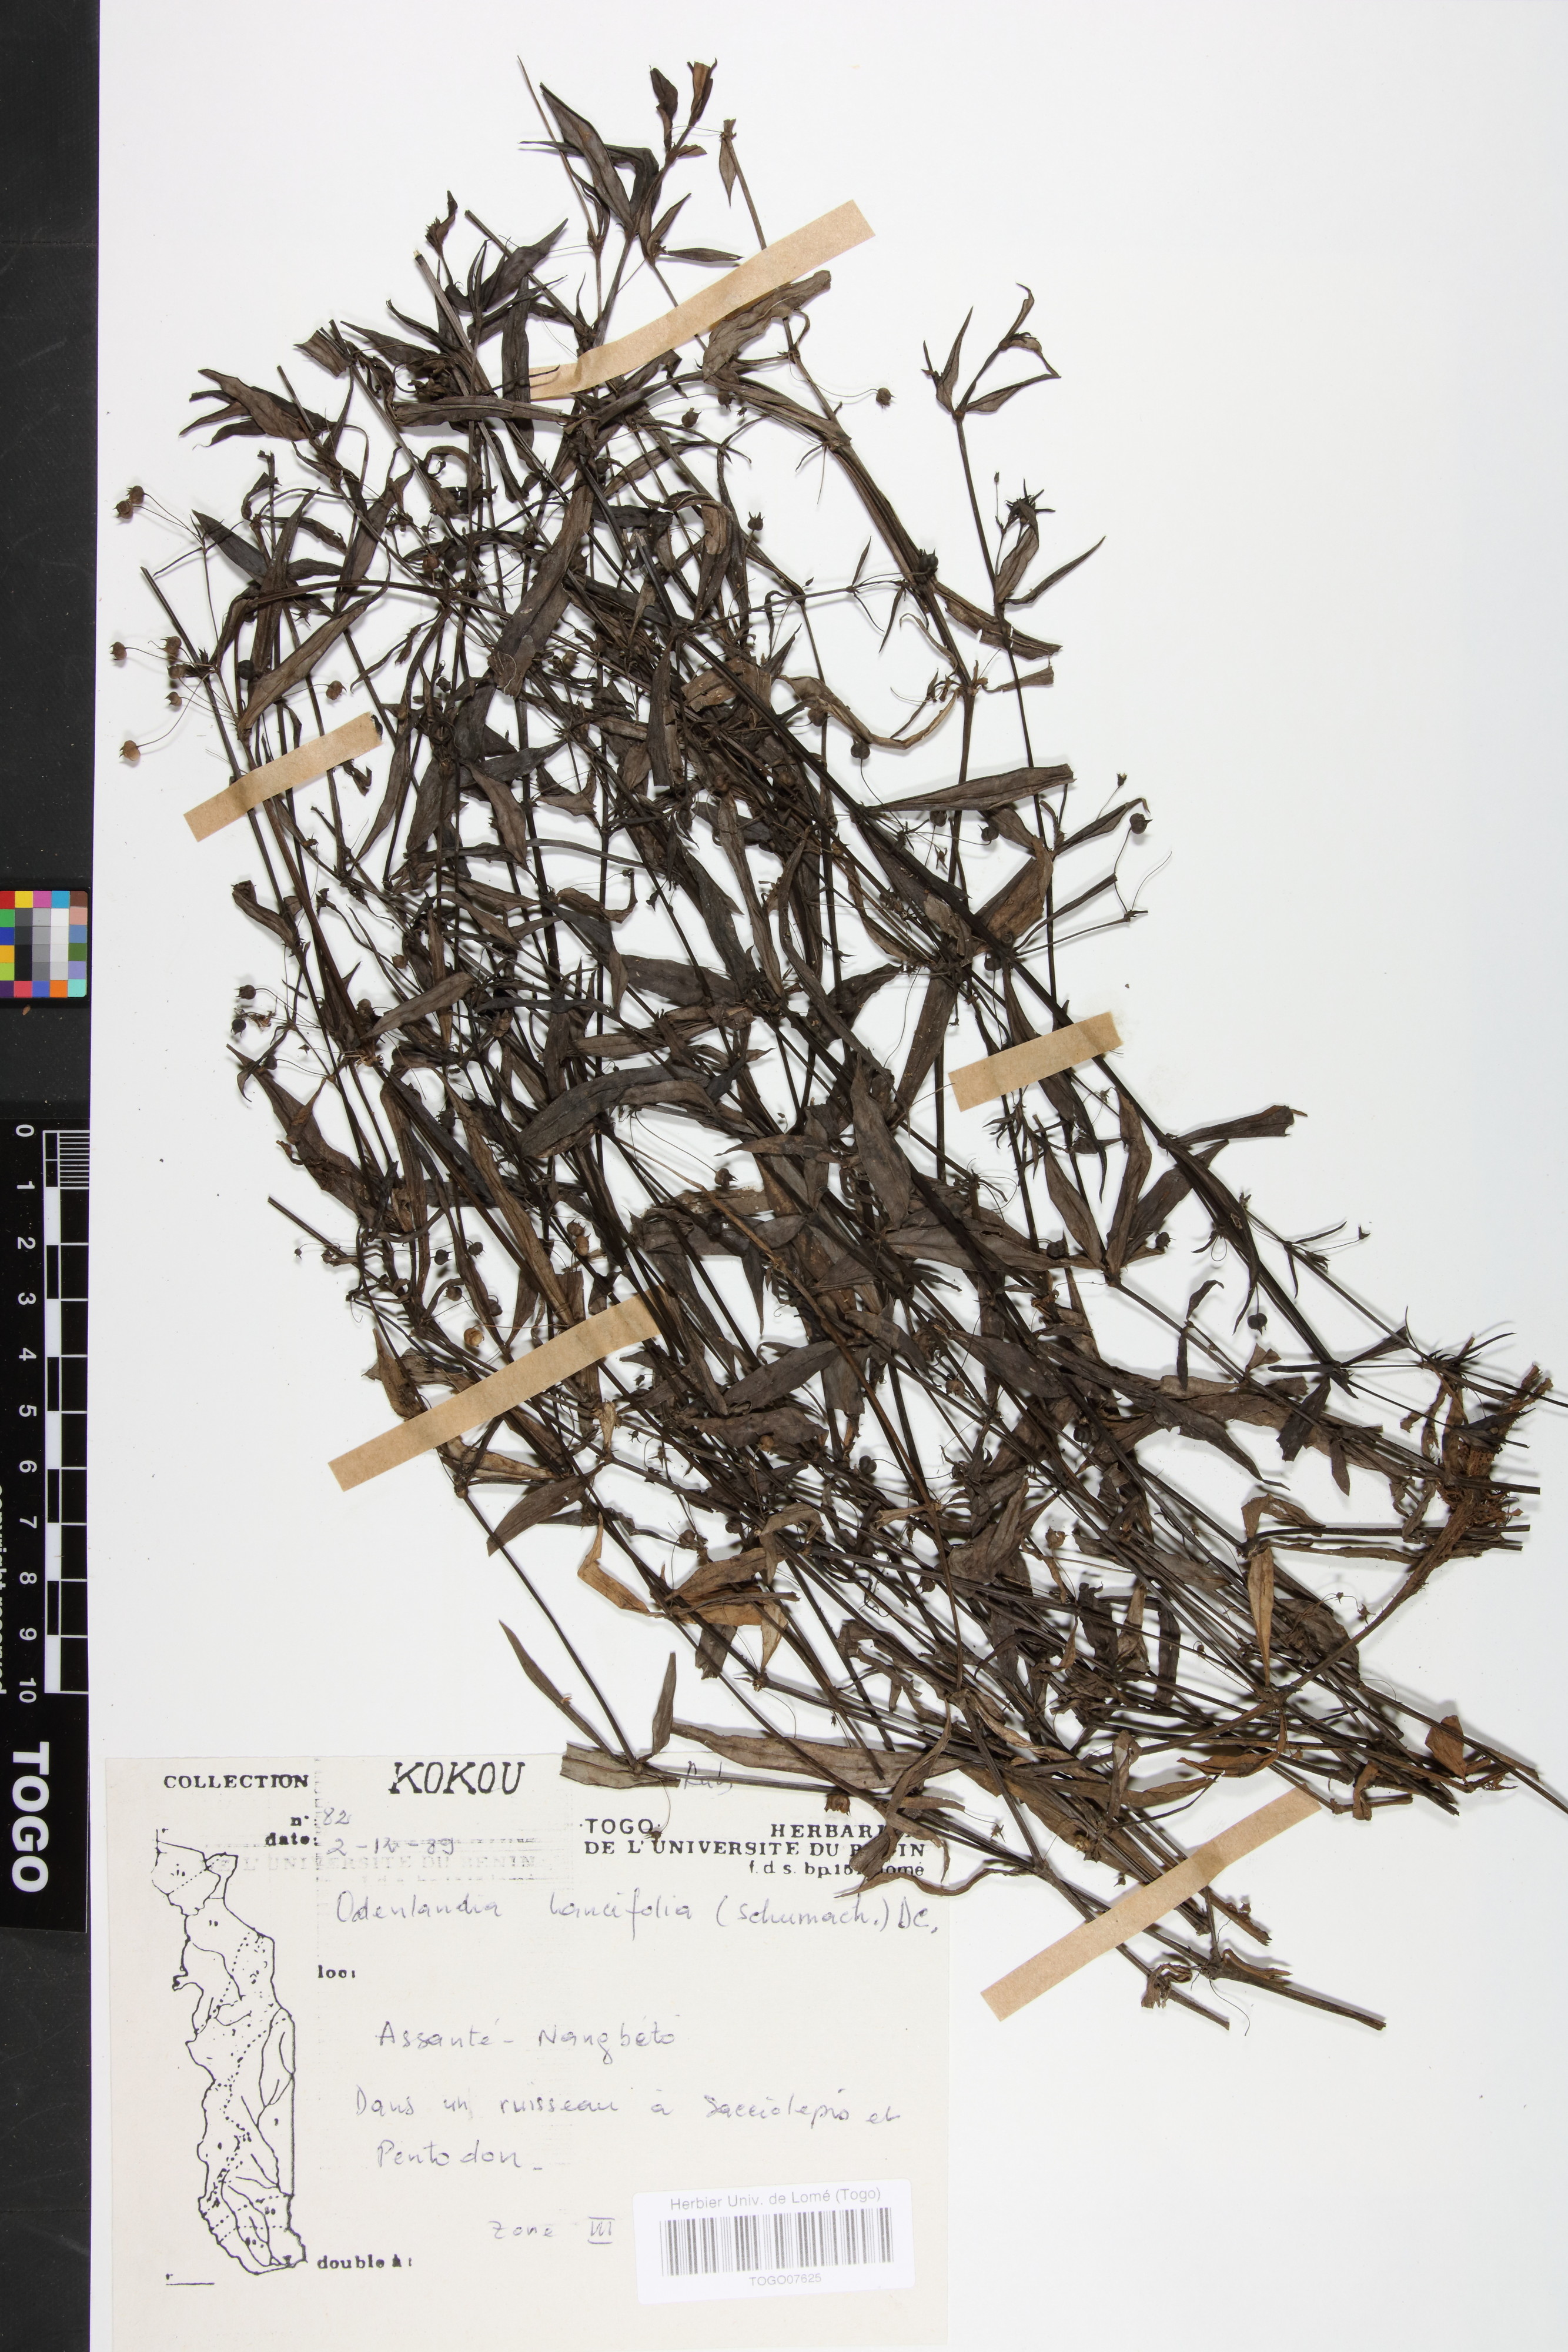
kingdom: Plantae
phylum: Tracheophyta
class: Magnoliopsida
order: Gentianales
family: Rubiaceae
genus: Oldenlandia
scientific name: Oldenlandia lancifolia
